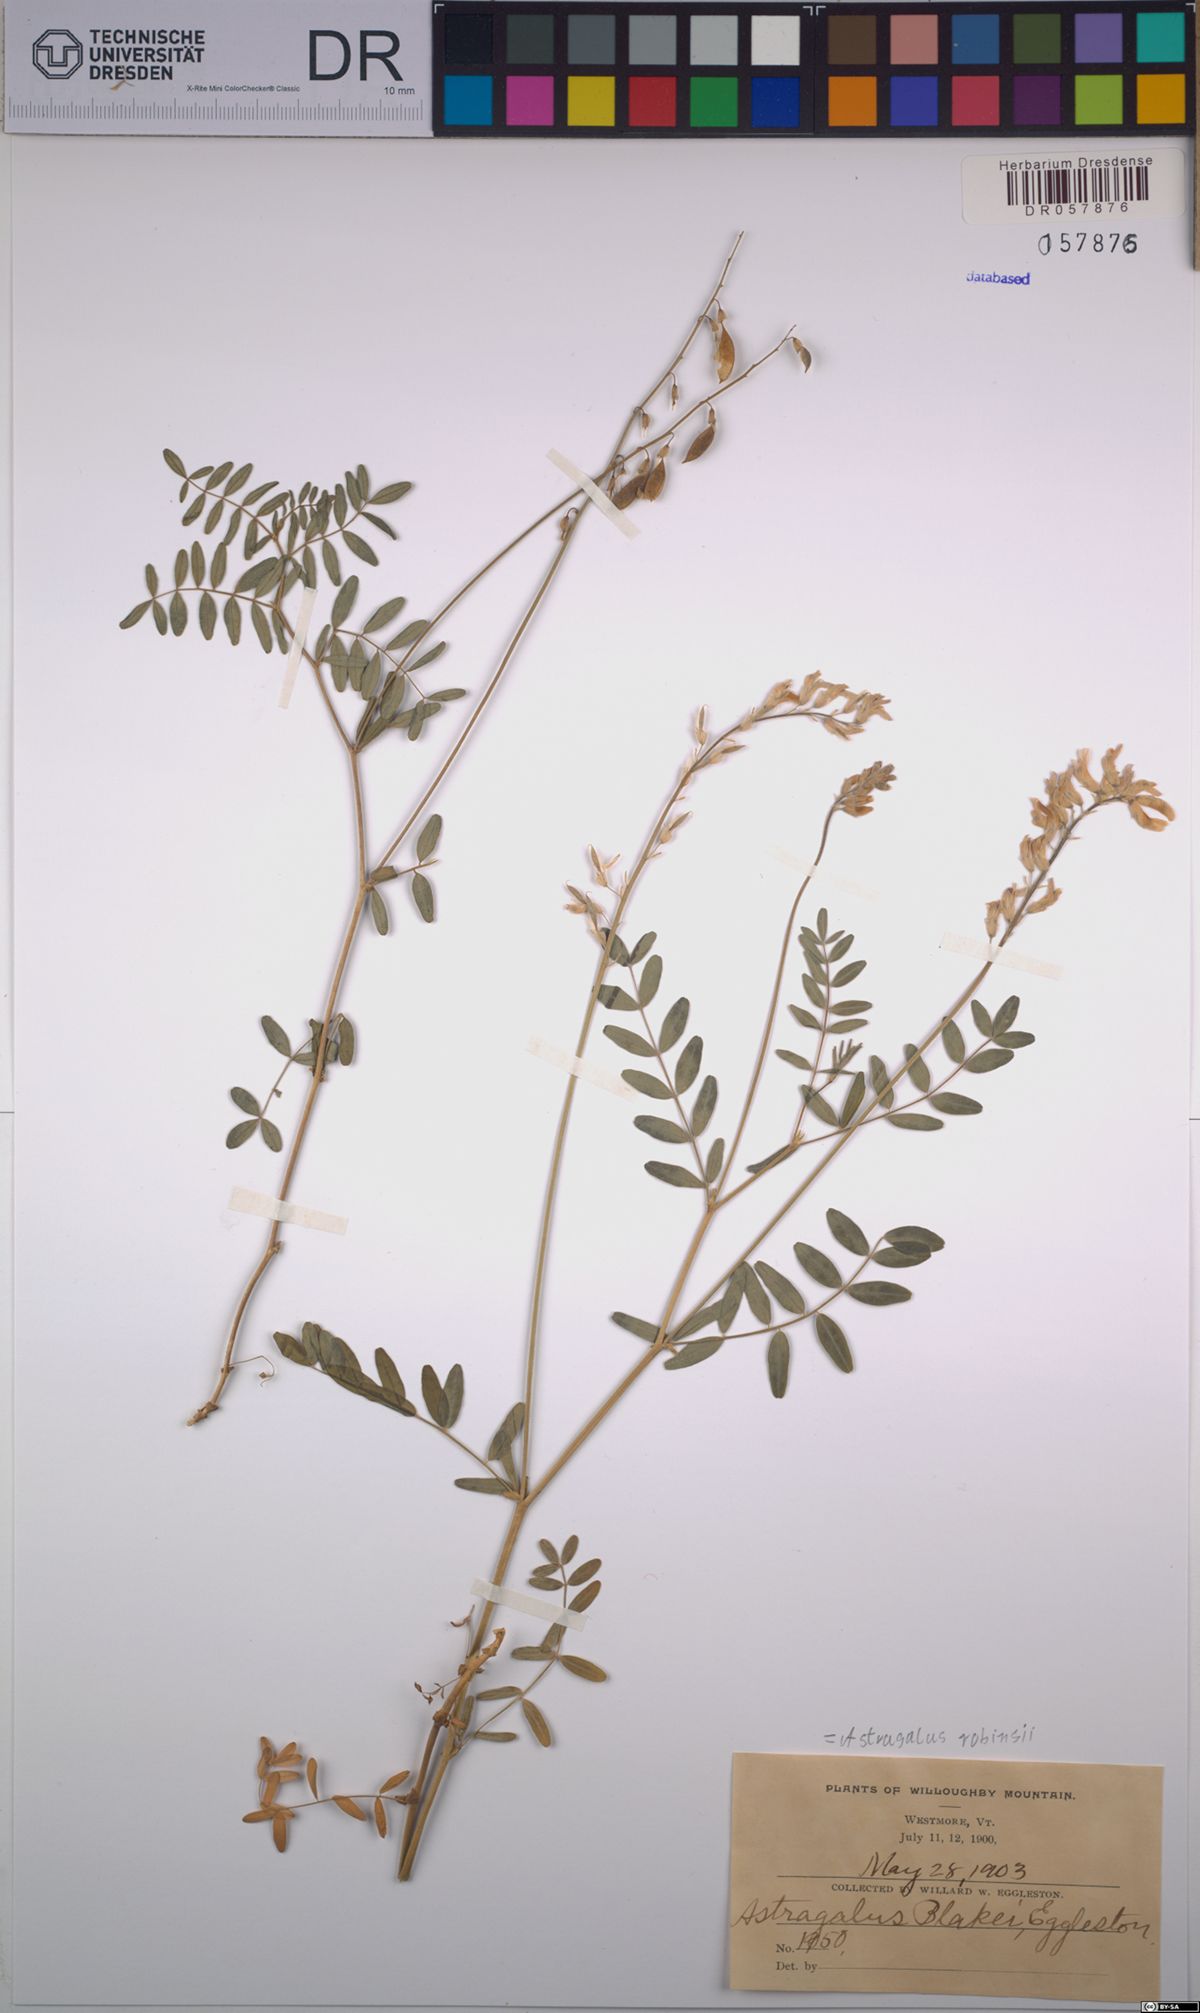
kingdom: Plantae
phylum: Tracheophyta
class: Magnoliopsida
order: Fabales
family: Fabaceae
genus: Astragalus
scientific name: Astragalus robbinsii
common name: Robbins' milk-vetch
